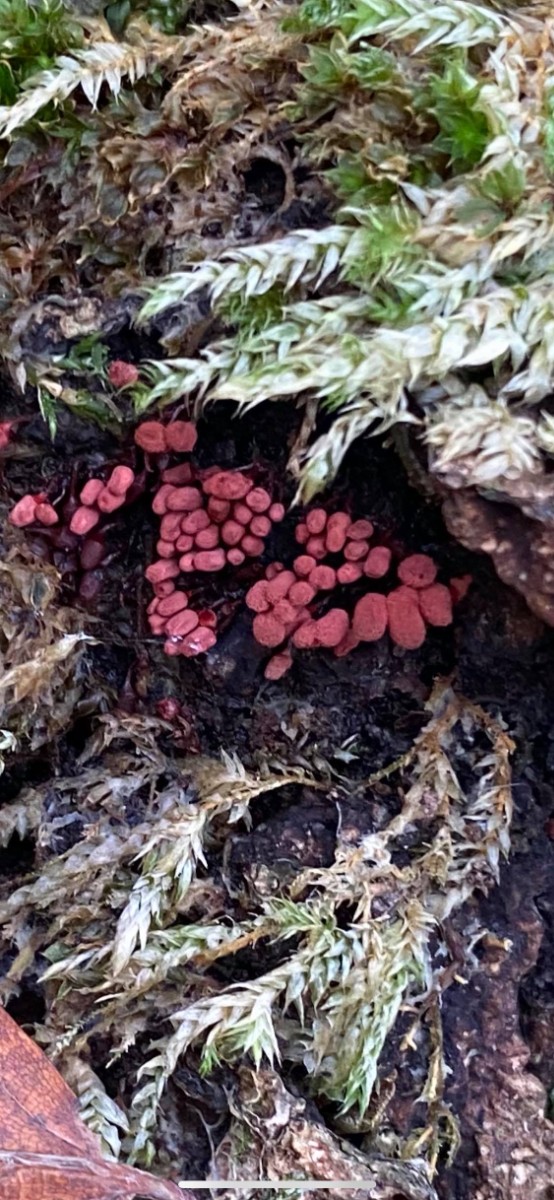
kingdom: Protozoa
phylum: Amoebozoa
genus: Arcyria
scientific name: Arcyria
